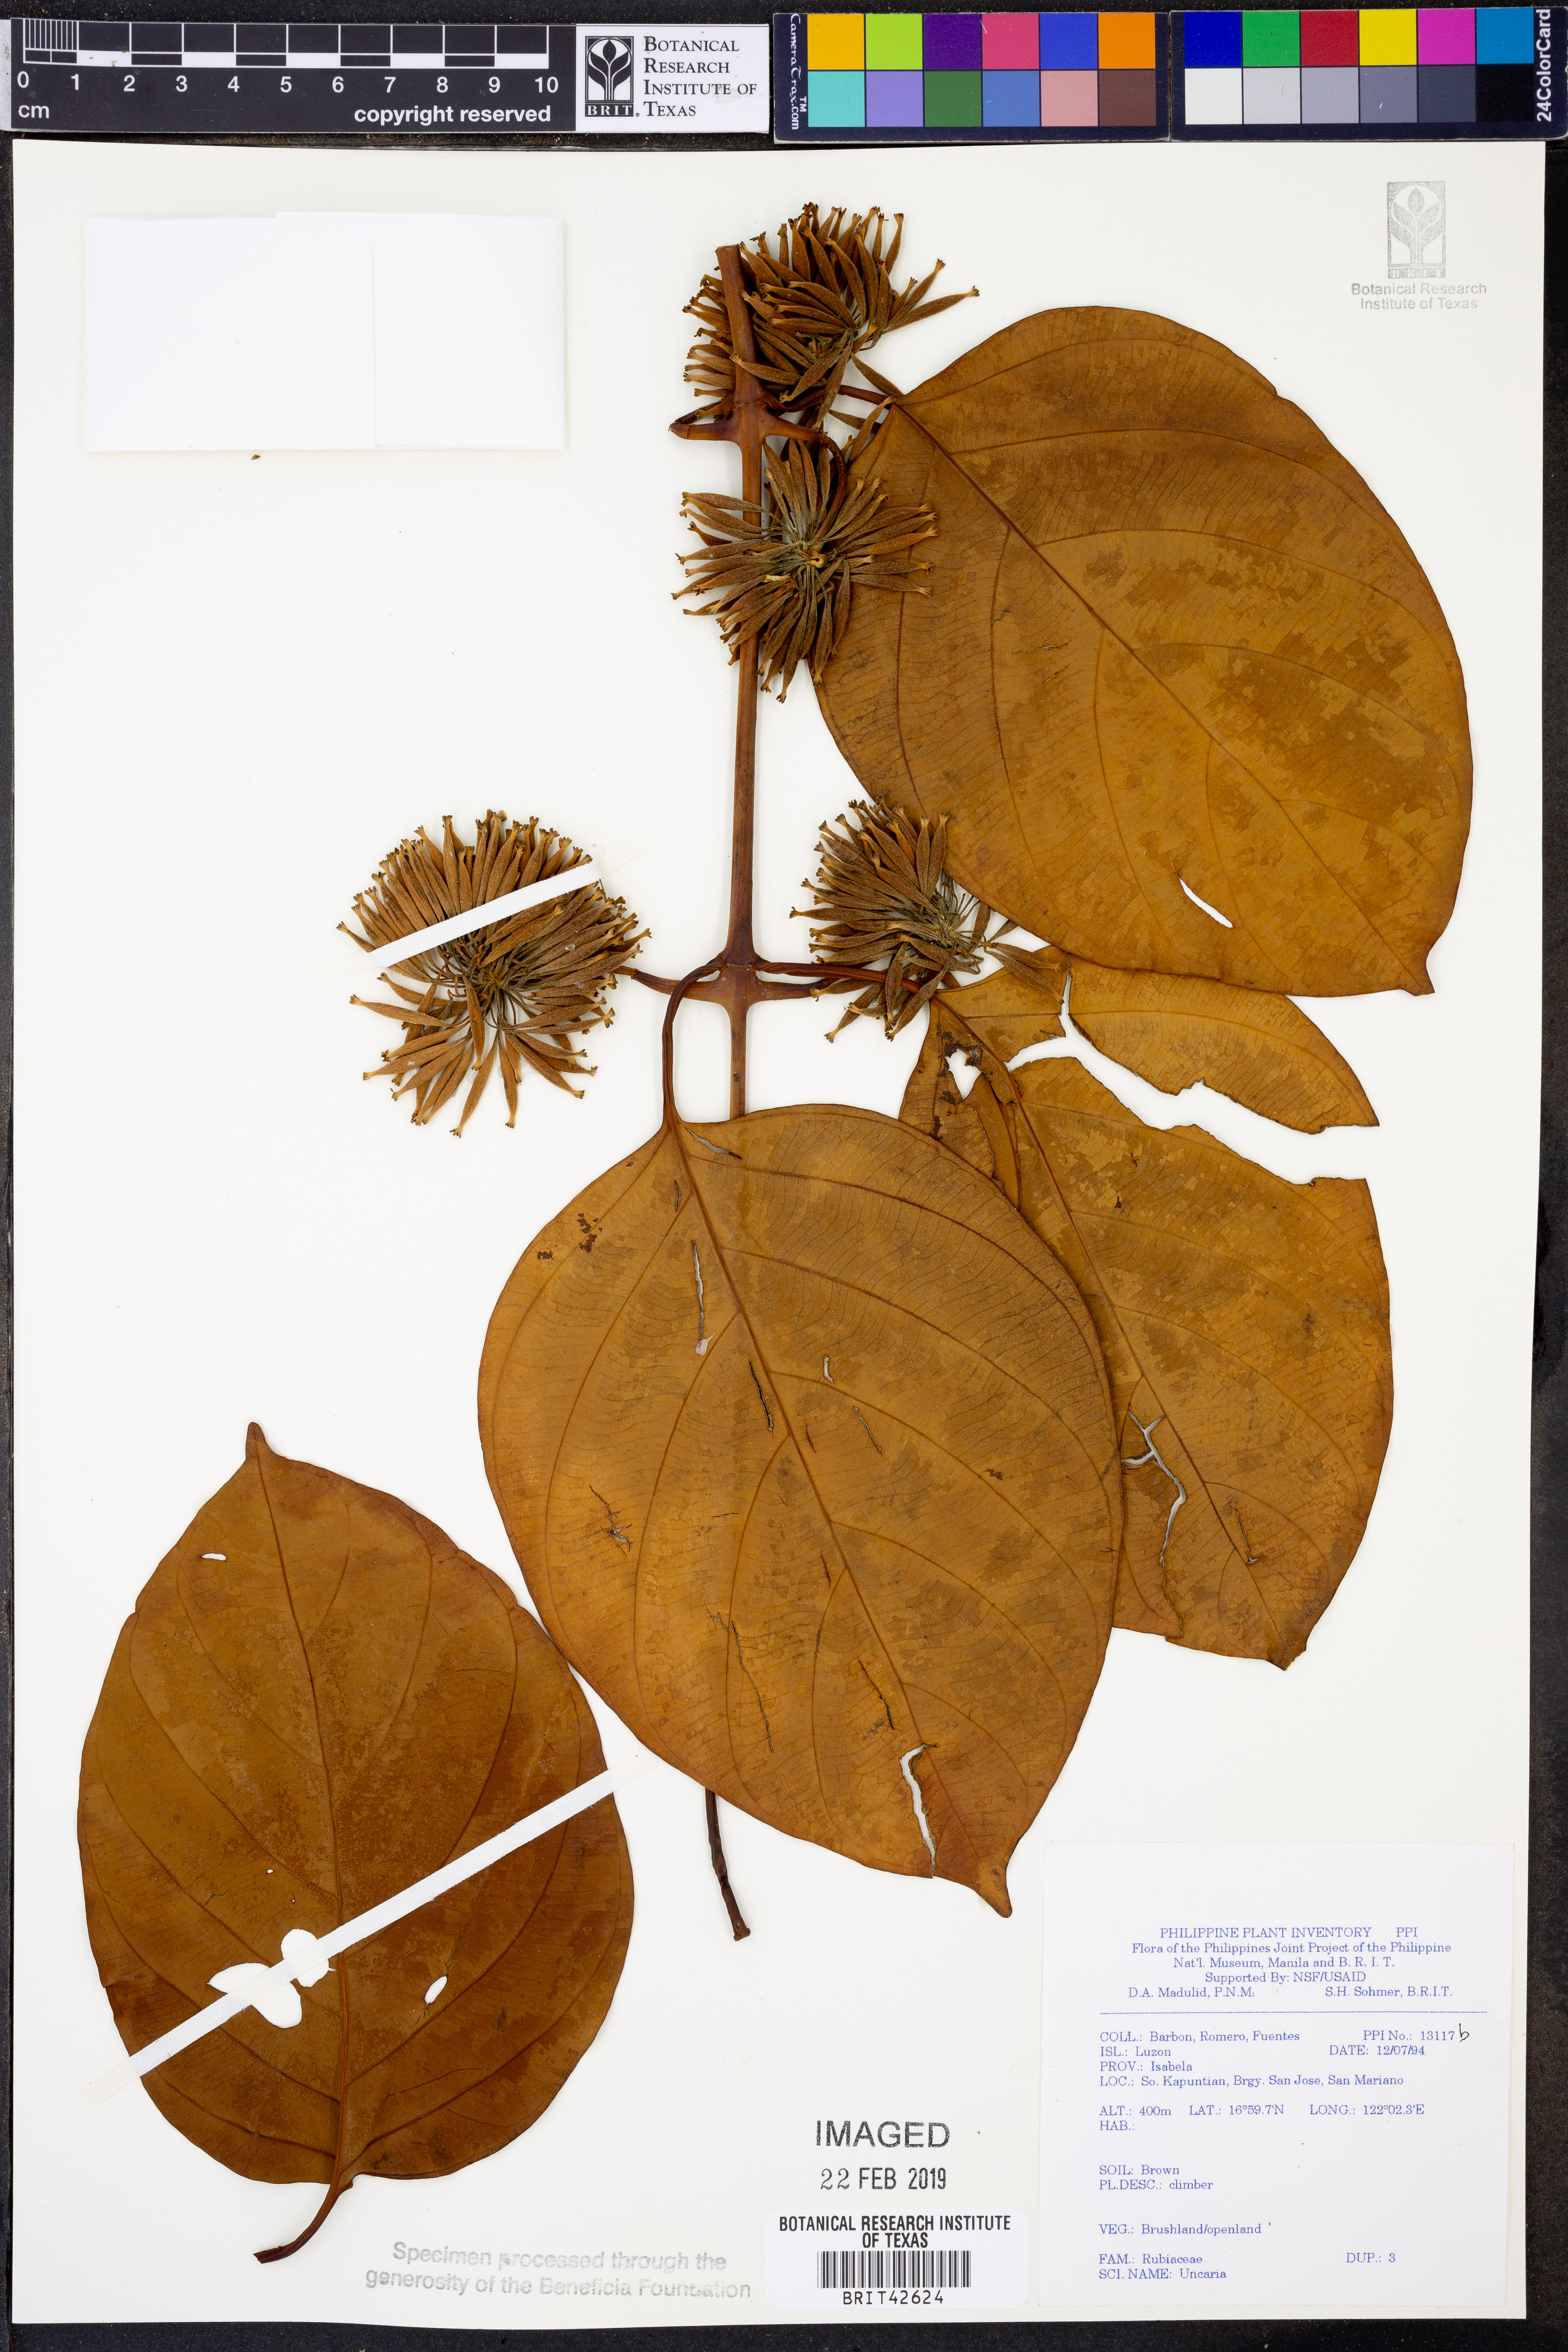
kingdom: Plantae
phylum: Tracheophyta
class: Magnoliopsida
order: Gentianales
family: Rubiaceae
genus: Uncaria
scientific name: Uncaria
